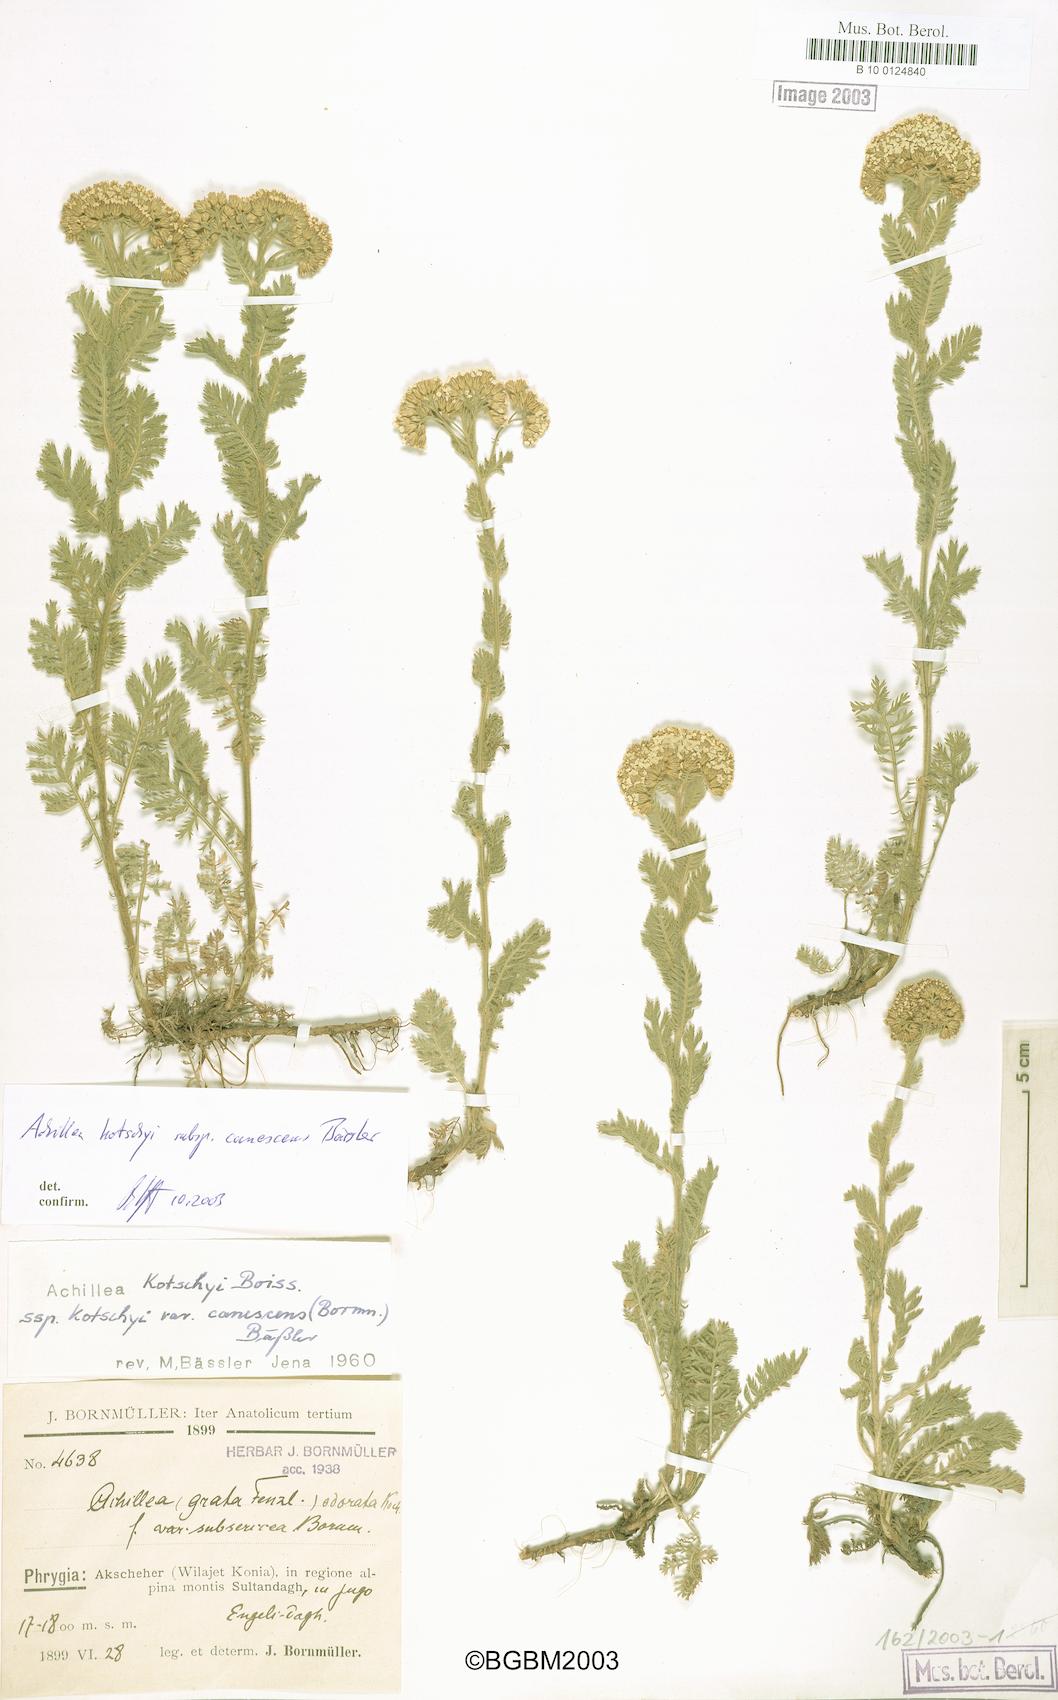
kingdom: Plantae
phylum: Tracheophyta
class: Magnoliopsida
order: Asterales
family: Asteraceae
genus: Achillea
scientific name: Achillea kotschyi
